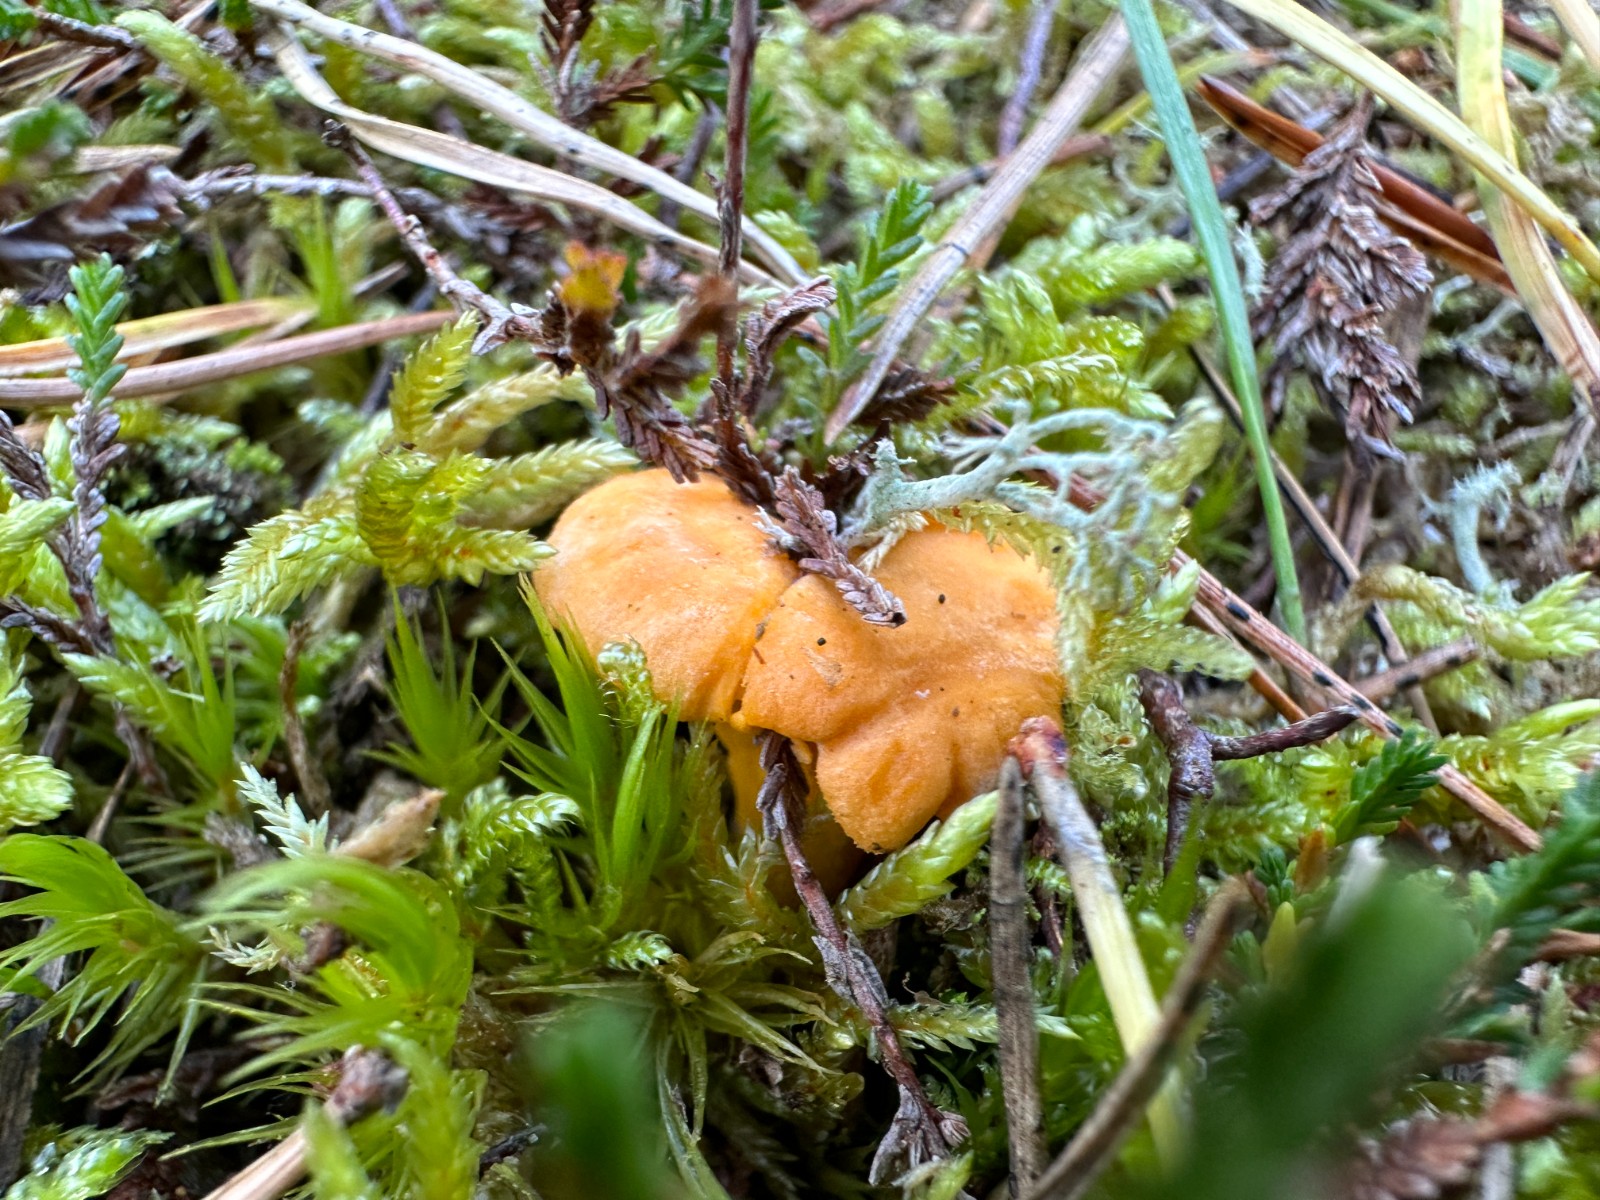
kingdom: Fungi
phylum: Basidiomycota
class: Agaricomycetes
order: Cantharellales
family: Hydnaceae
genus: Cantharellus
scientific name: Cantharellus cibarius
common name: almindelig kantarel
